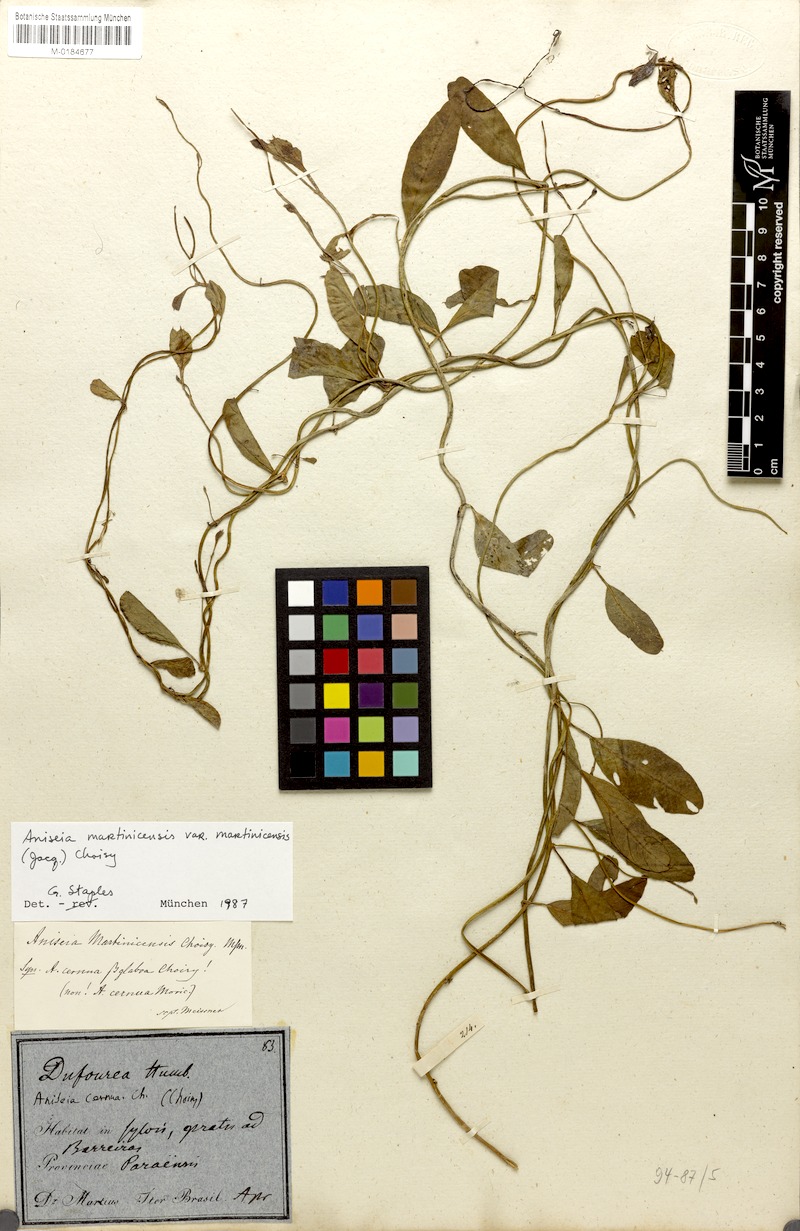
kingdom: Plantae
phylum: Tracheophyta
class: Magnoliopsida
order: Solanales
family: Convolvulaceae
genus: Aniseia
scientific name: Aniseia martinicensis
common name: Kulayadambu
